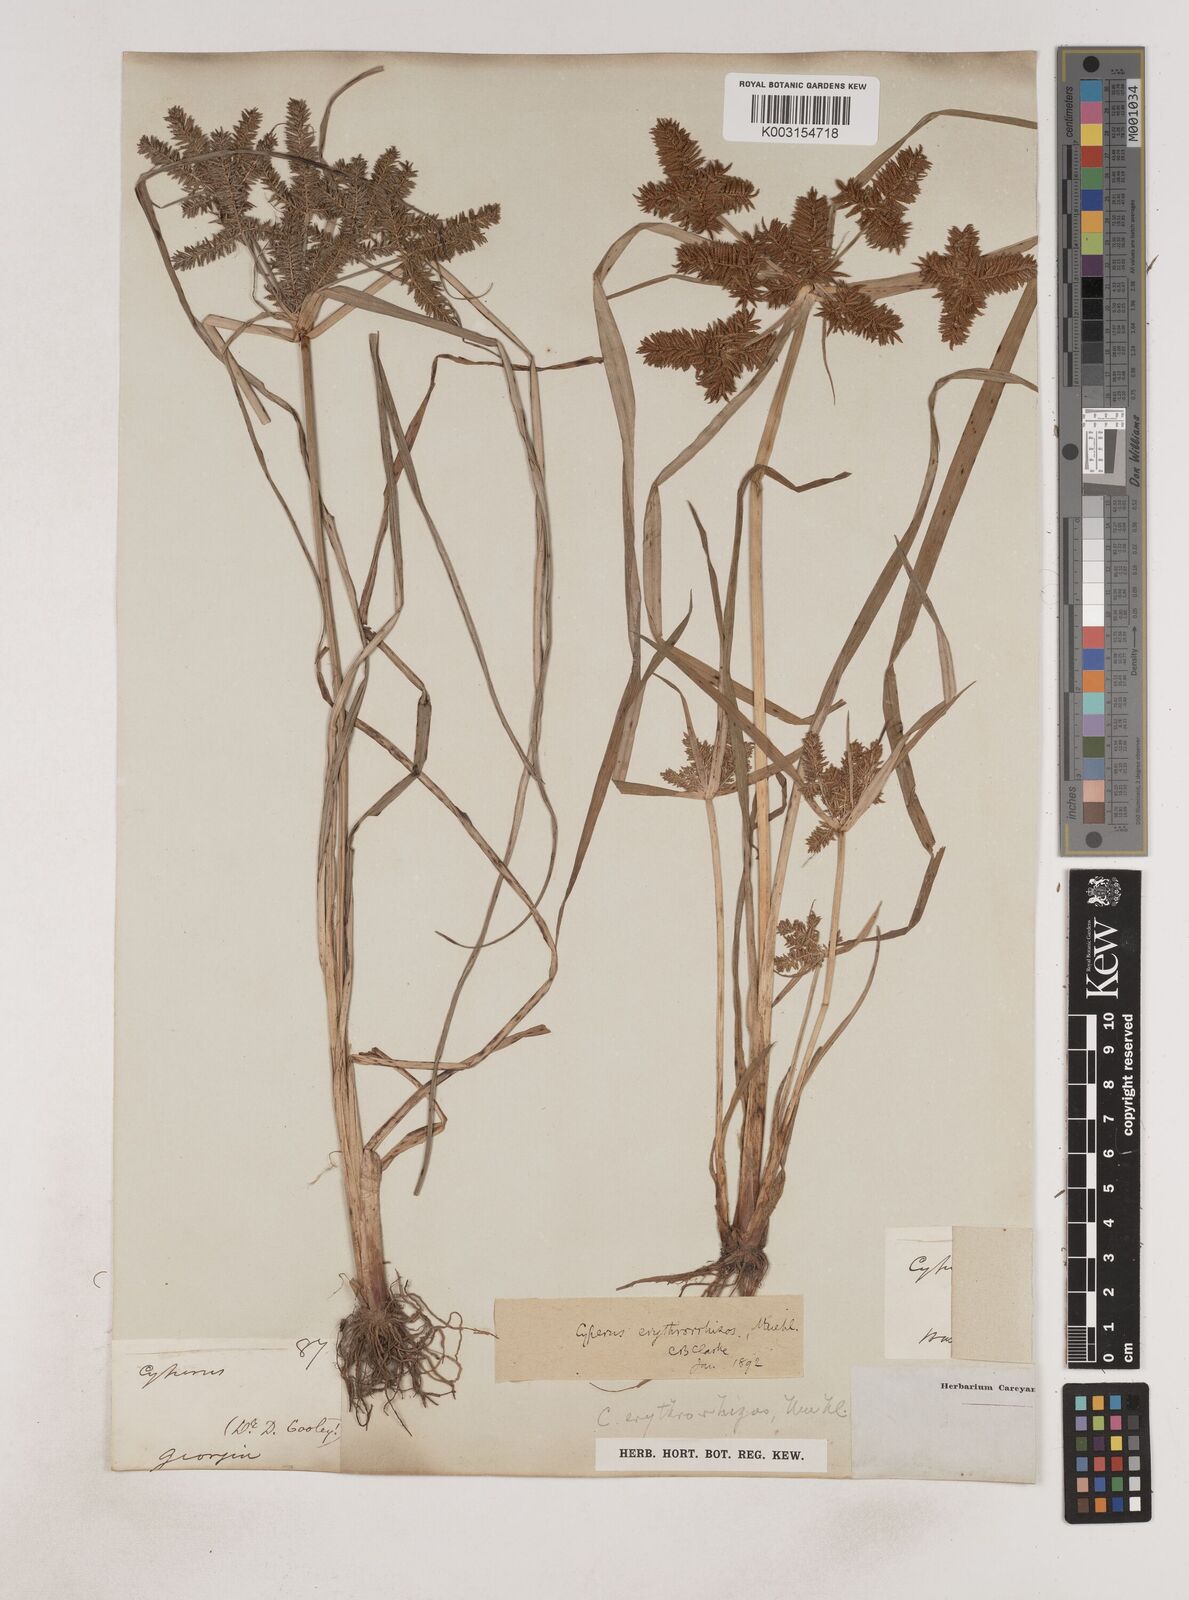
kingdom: Plantae
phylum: Tracheophyta
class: Liliopsida
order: Poales
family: Cyperaceae
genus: Cyperus
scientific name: Cyperus erythrorhizos
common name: Red-root flat sedge
